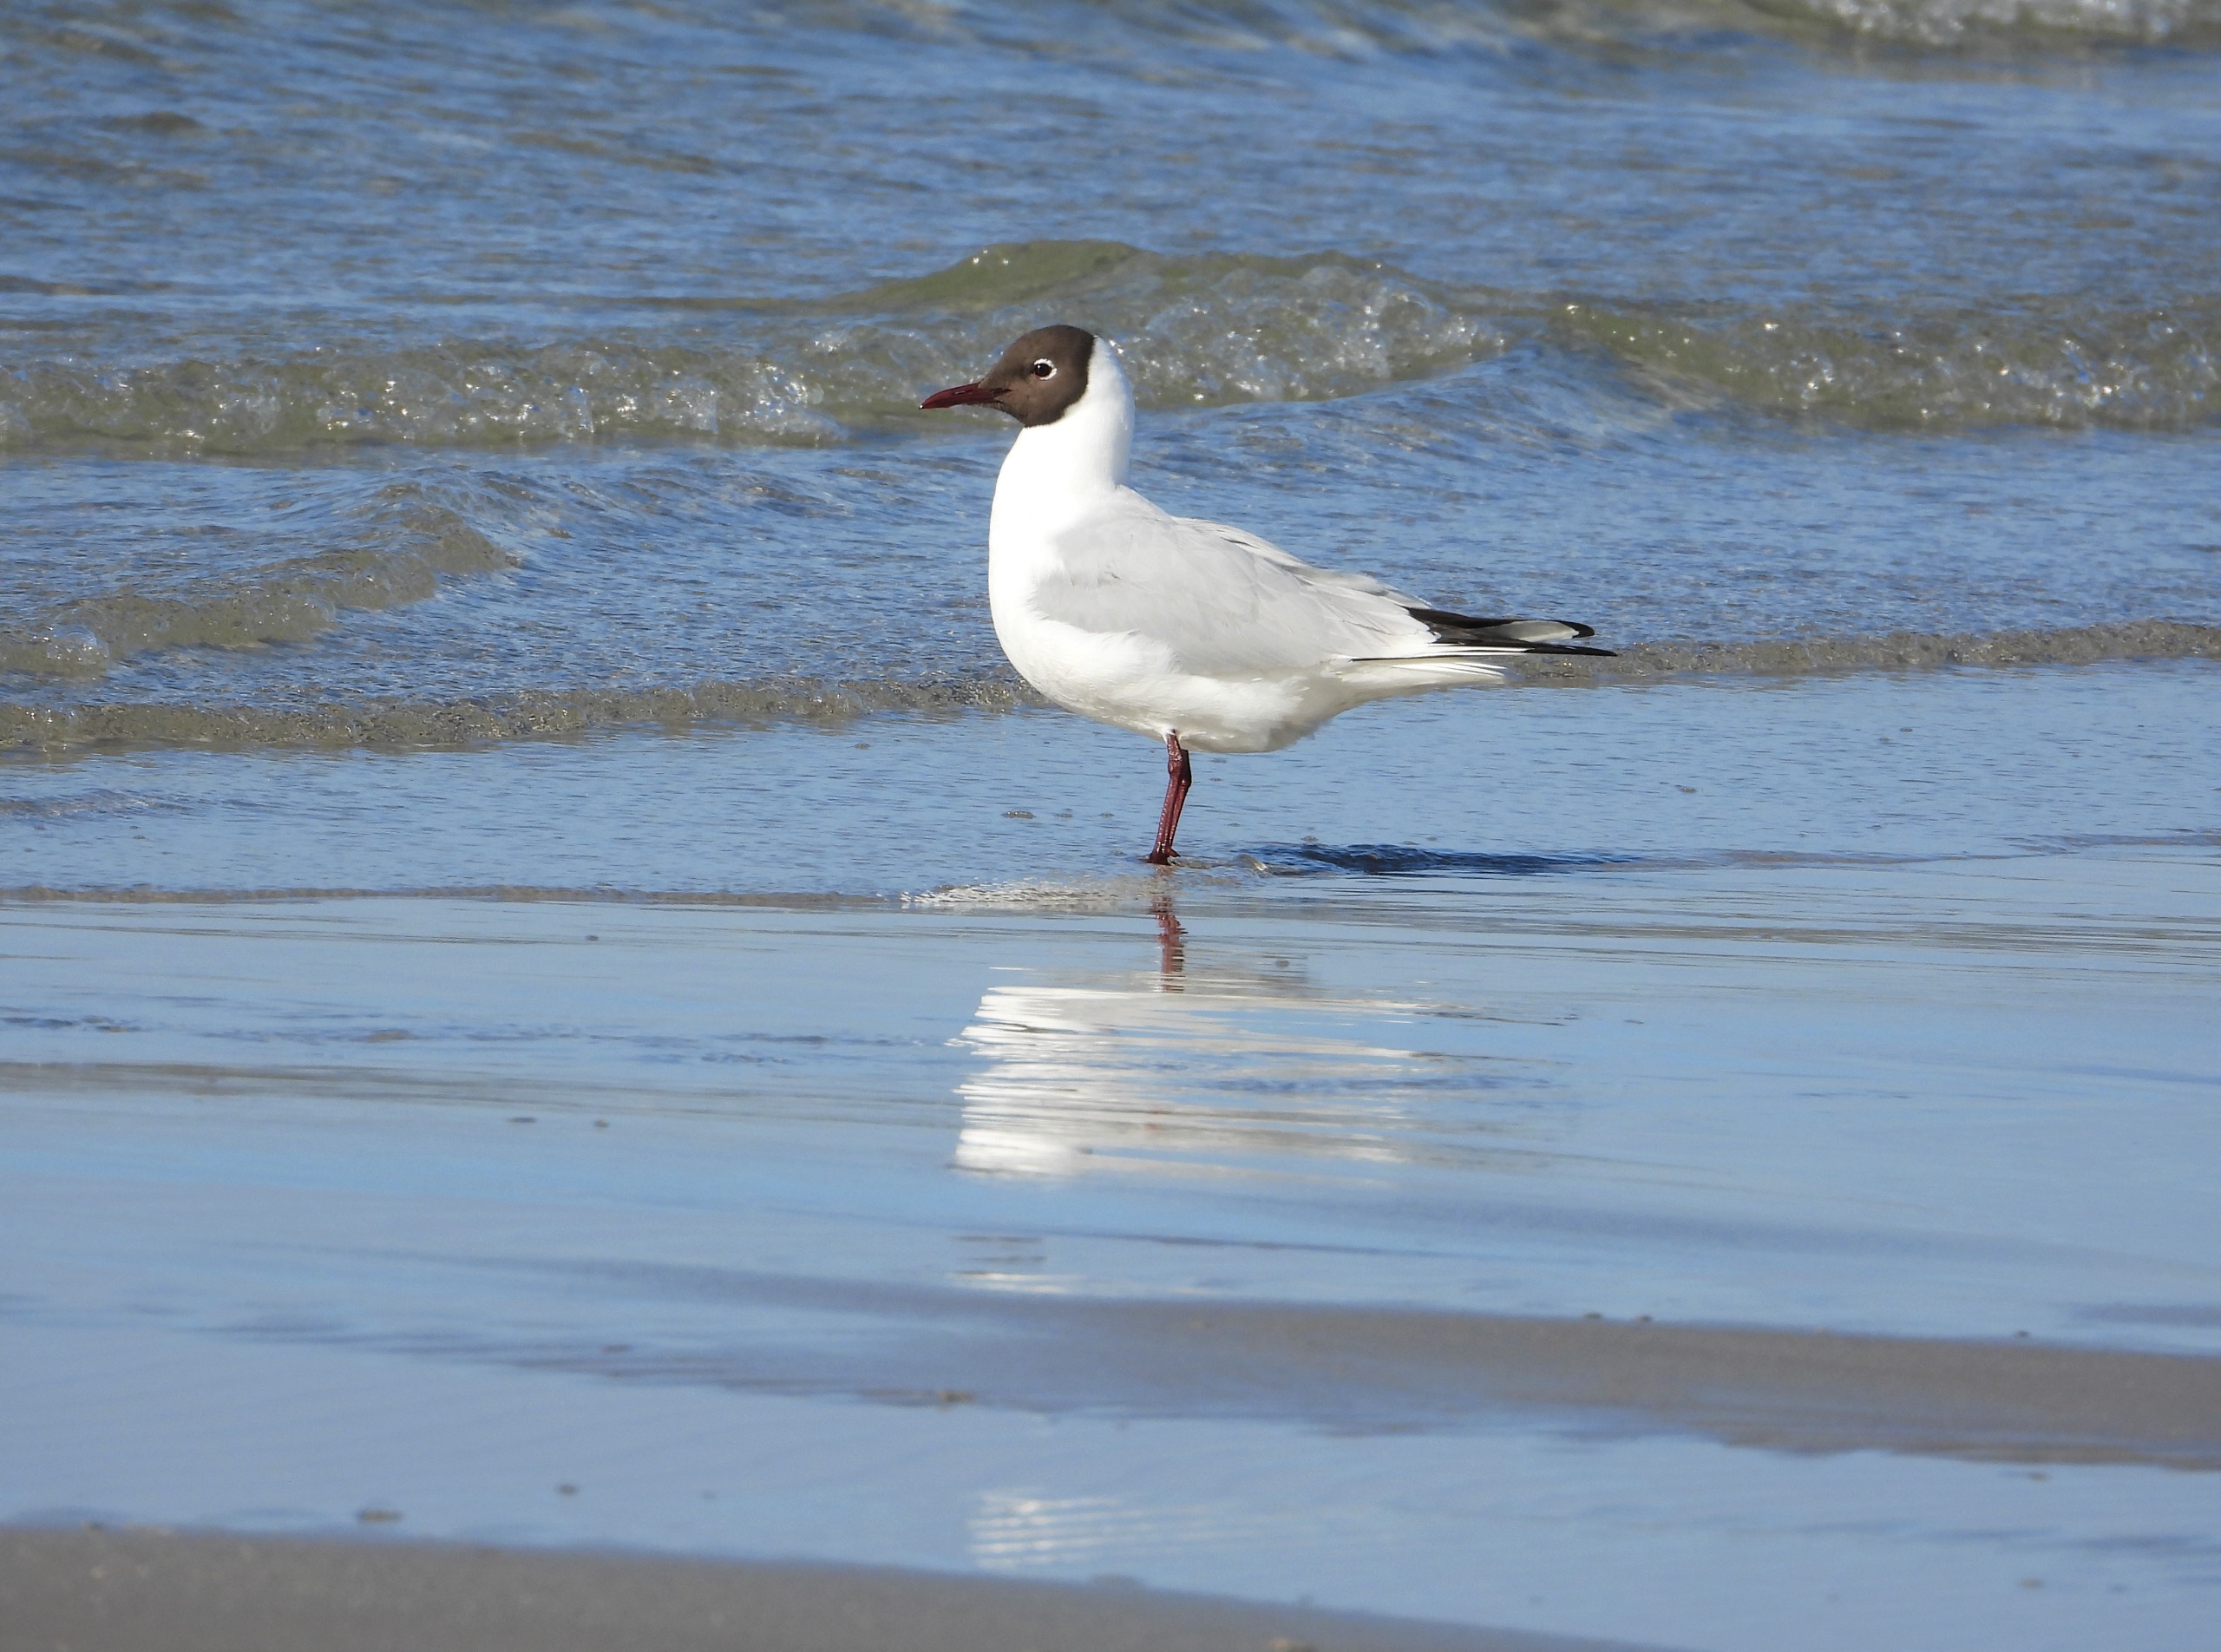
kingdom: Animalia
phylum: Chordata
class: Aves
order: Charadriiformes
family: Laridae
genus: Chroicocephalus
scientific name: Chroicocephalus ridibundus
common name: Hættemåge
